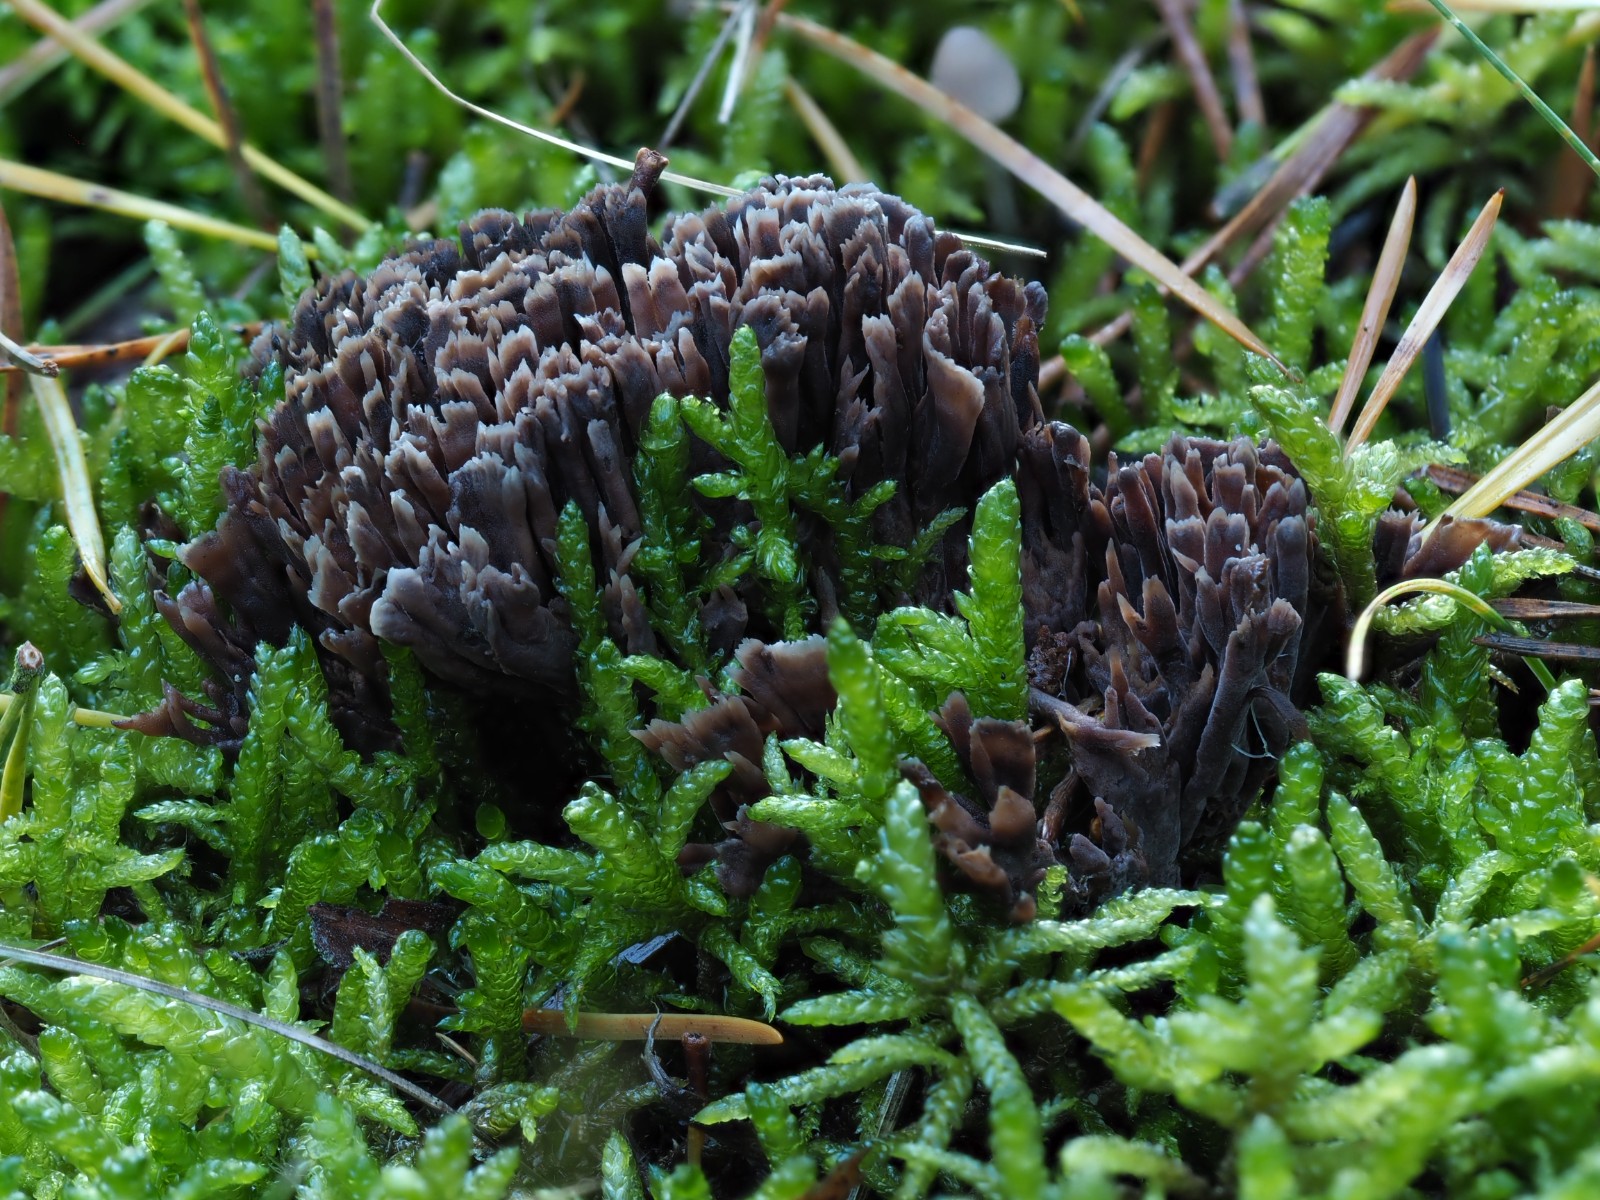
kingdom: Fungi
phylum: Basidiomycota
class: Agaricomycetes
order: Thelephorales
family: Thelephoraceae
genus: Thelephora
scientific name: Thelephora palmata
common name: grenet frynsesvamp
